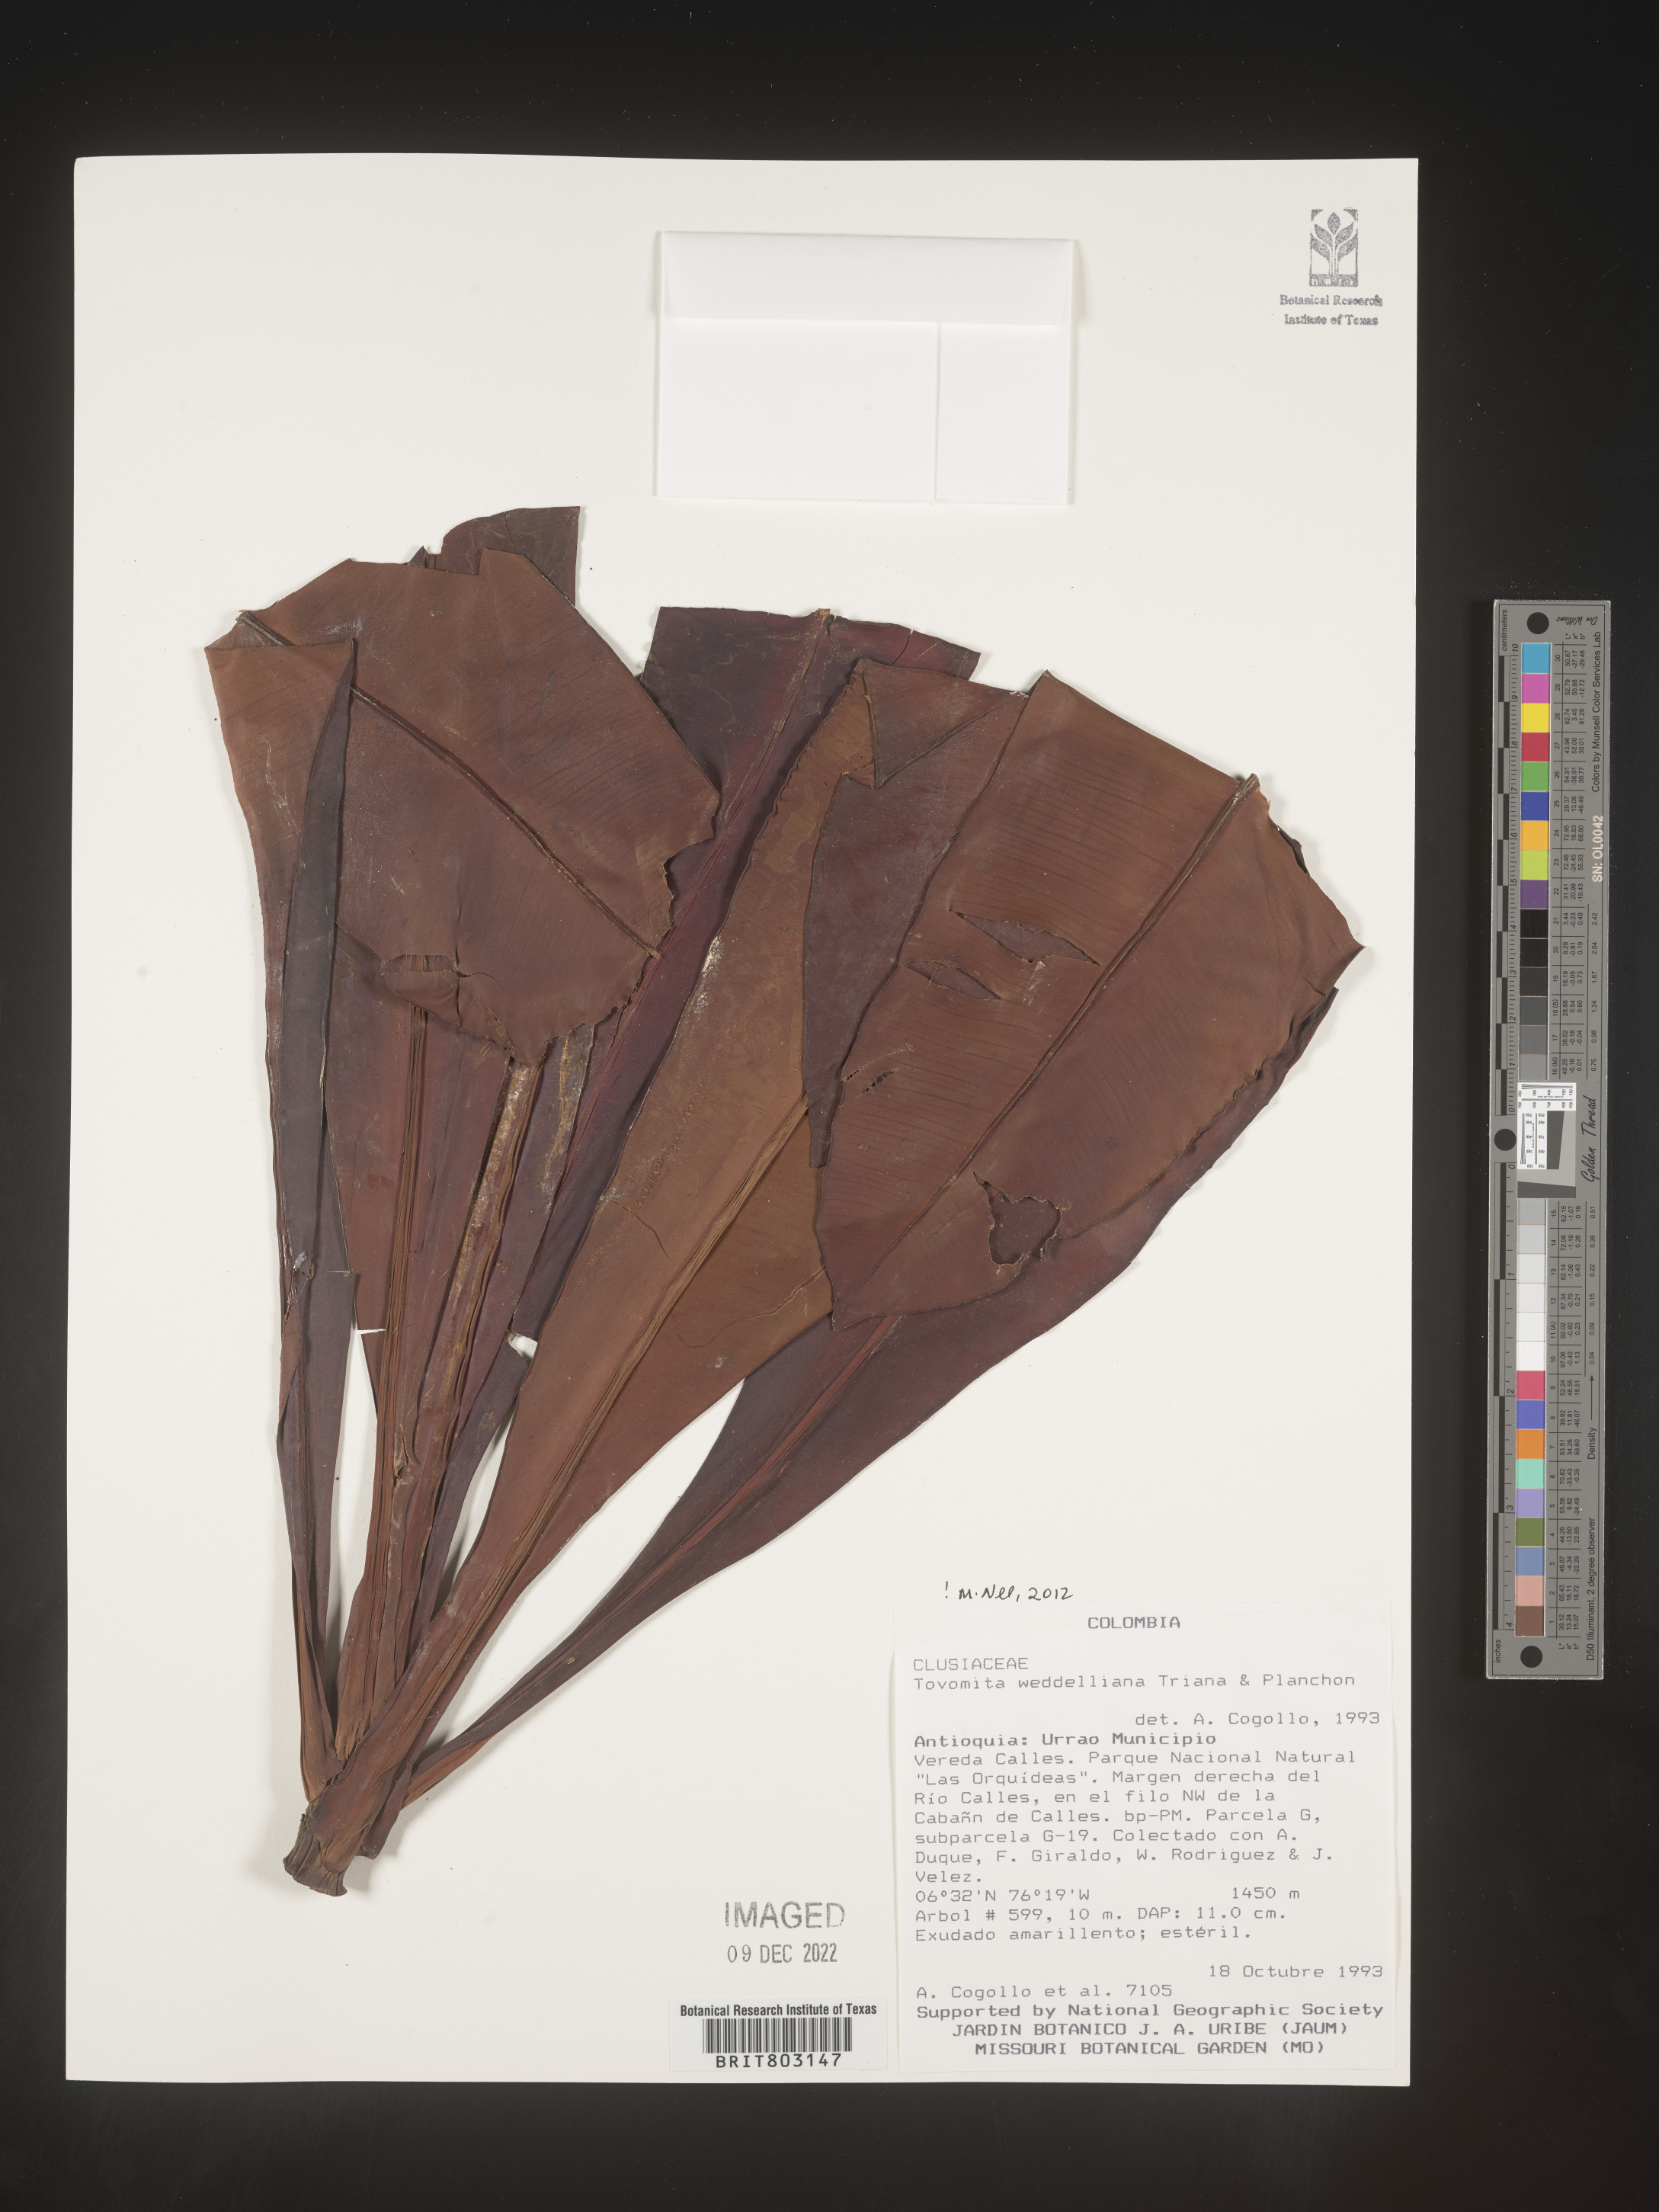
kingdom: Plantae
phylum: Tracheophyta
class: Magnoliopsida
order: Malpighiales
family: Clusiaceae
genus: Arawakia
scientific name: Arawakia weddelliana
